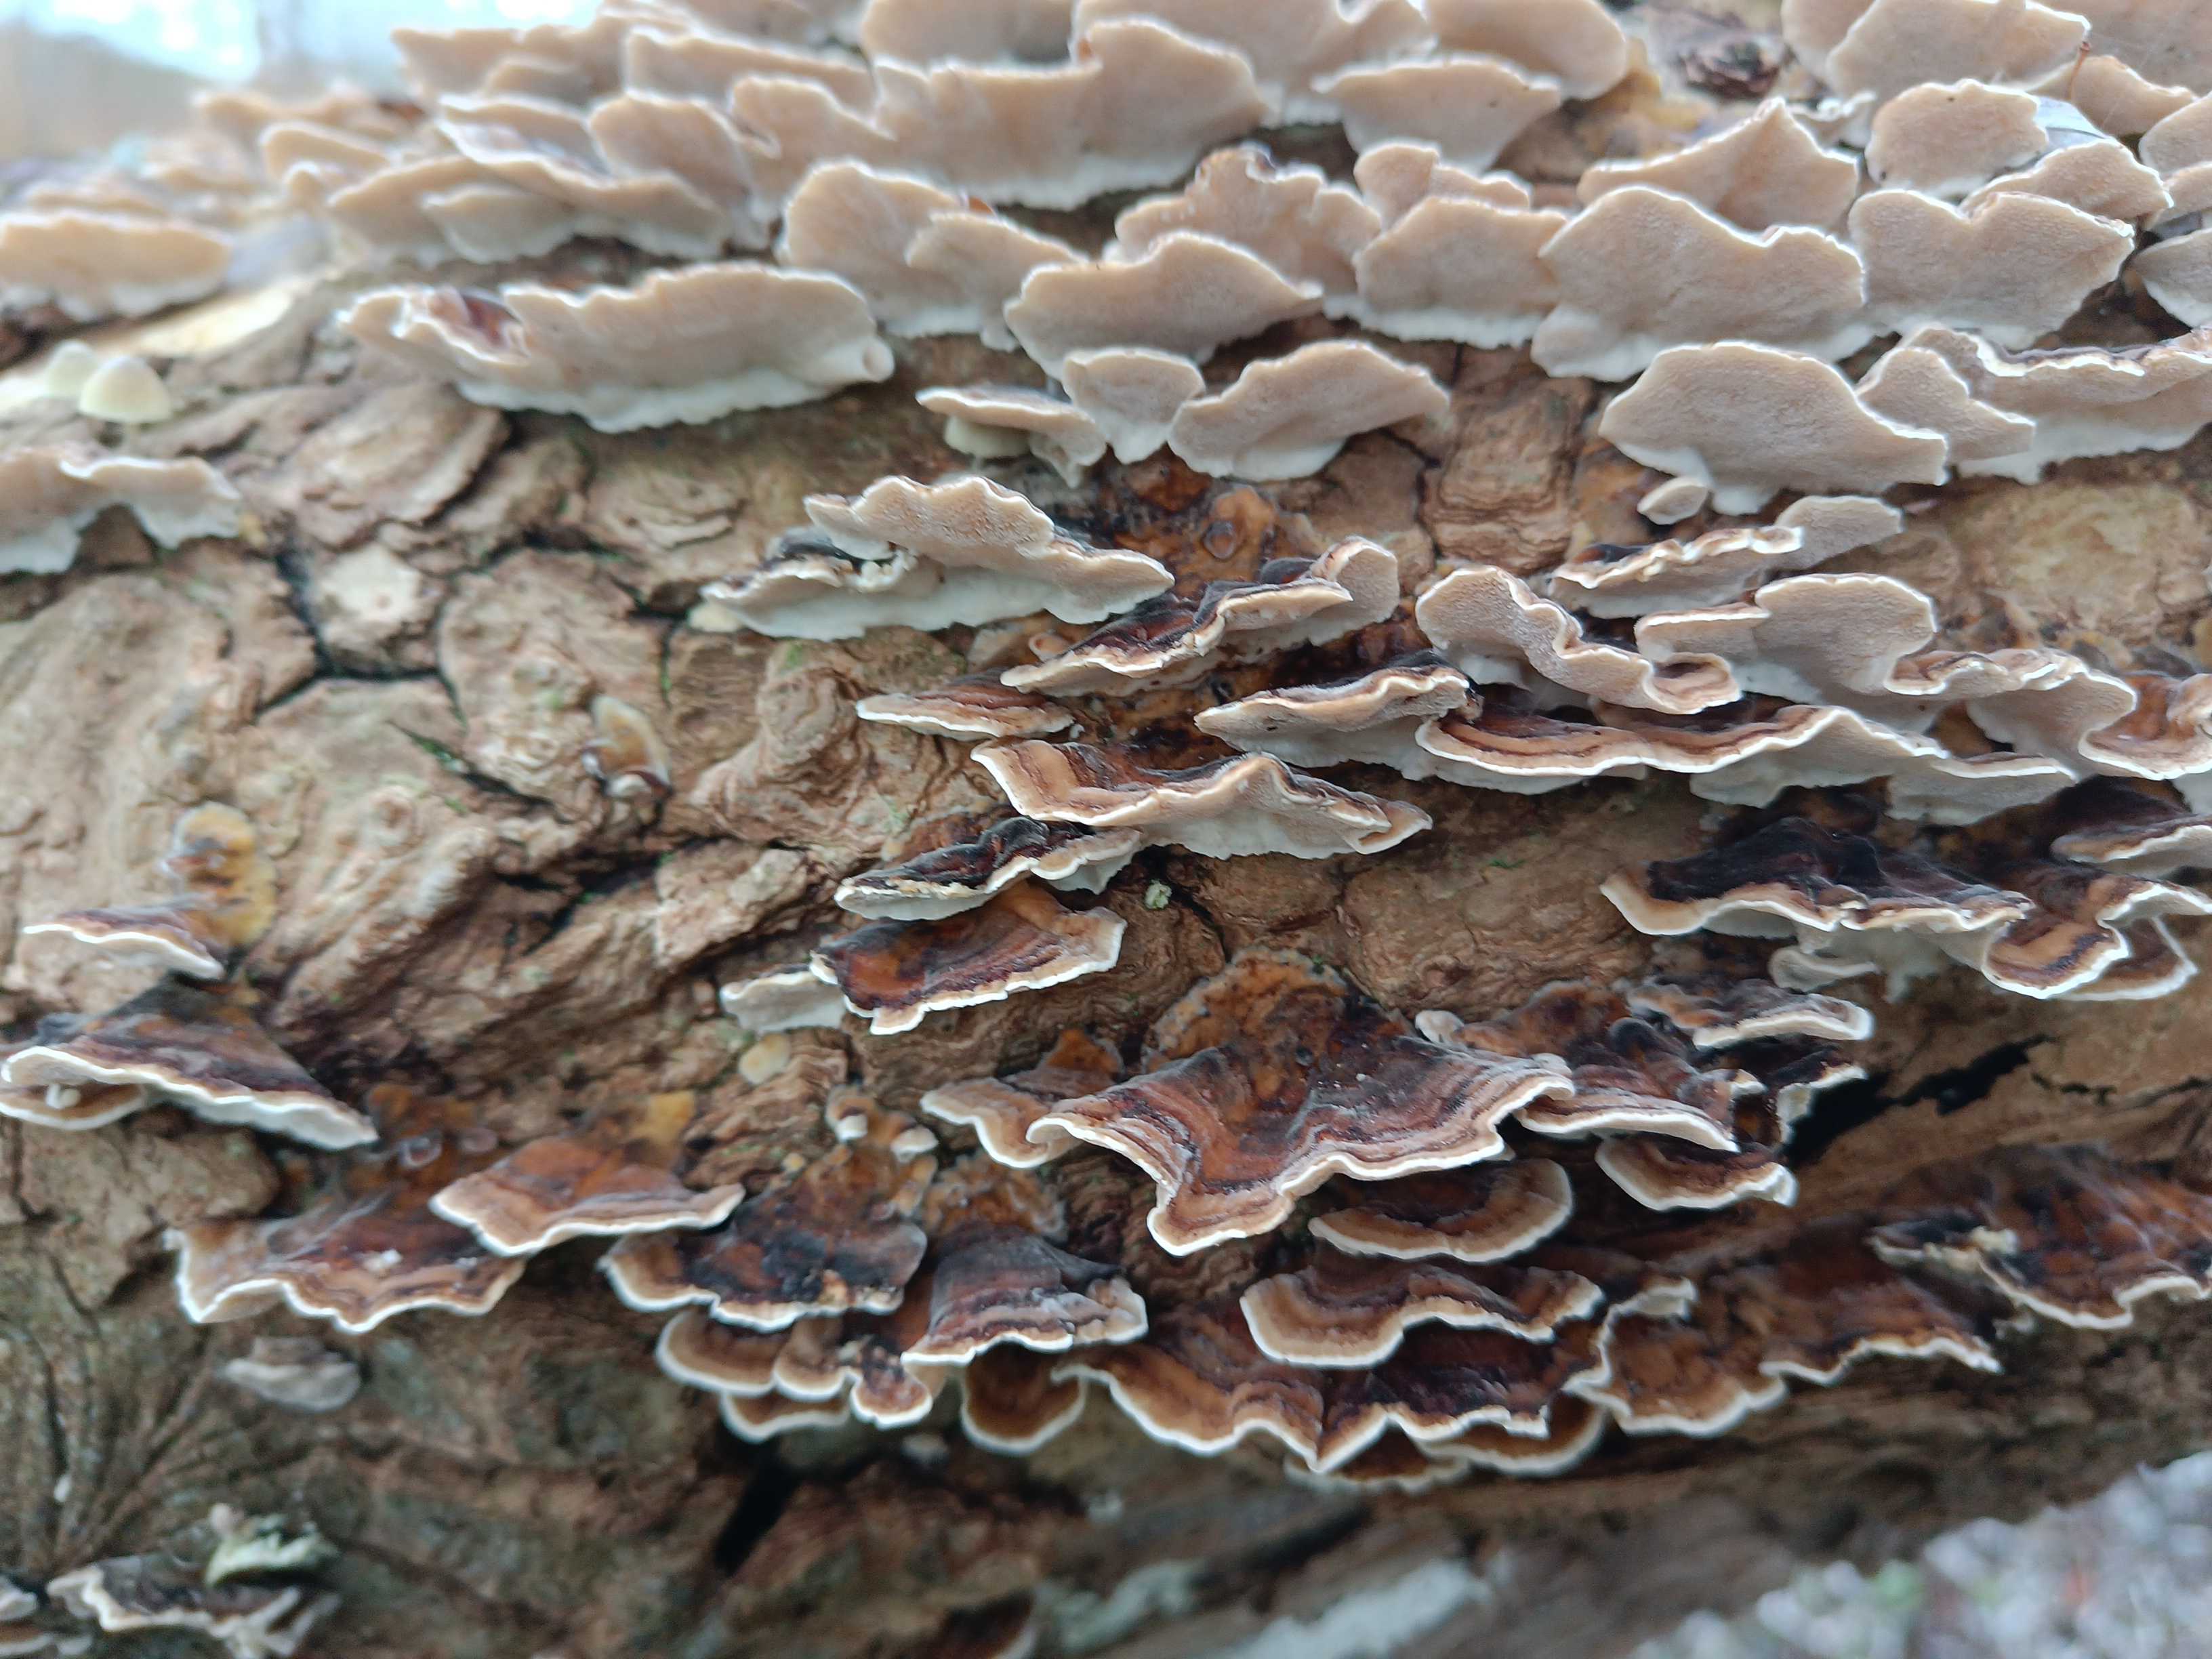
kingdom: Fungi
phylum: Basidiomycota
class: Agaricomycetes
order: Polyporales
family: Polyporaceae
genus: Trametes
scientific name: Trametes versicolor
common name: broget læderporesvamp
